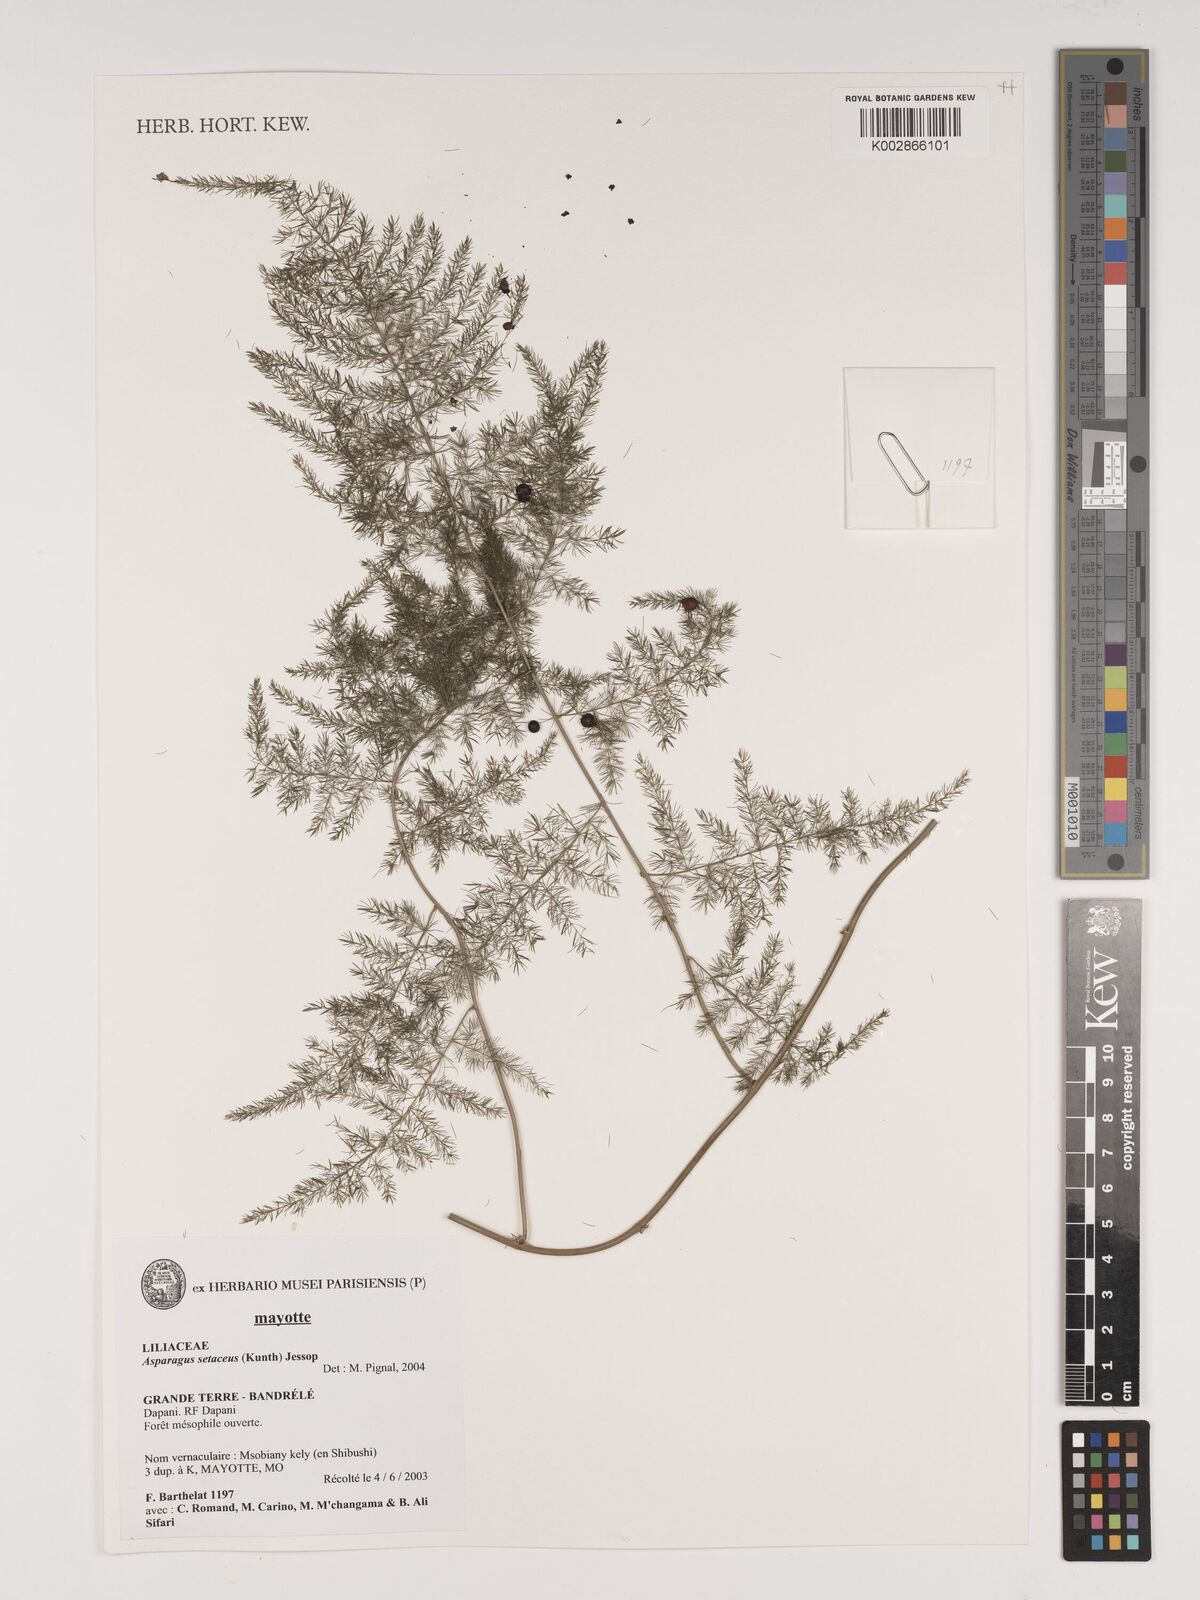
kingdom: Plantae
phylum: Tracheophyta
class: Liliopsida
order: Asparagales
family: Asparagaceae
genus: Asparagus
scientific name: Asparagus setaceus
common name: Common asparagus fern
